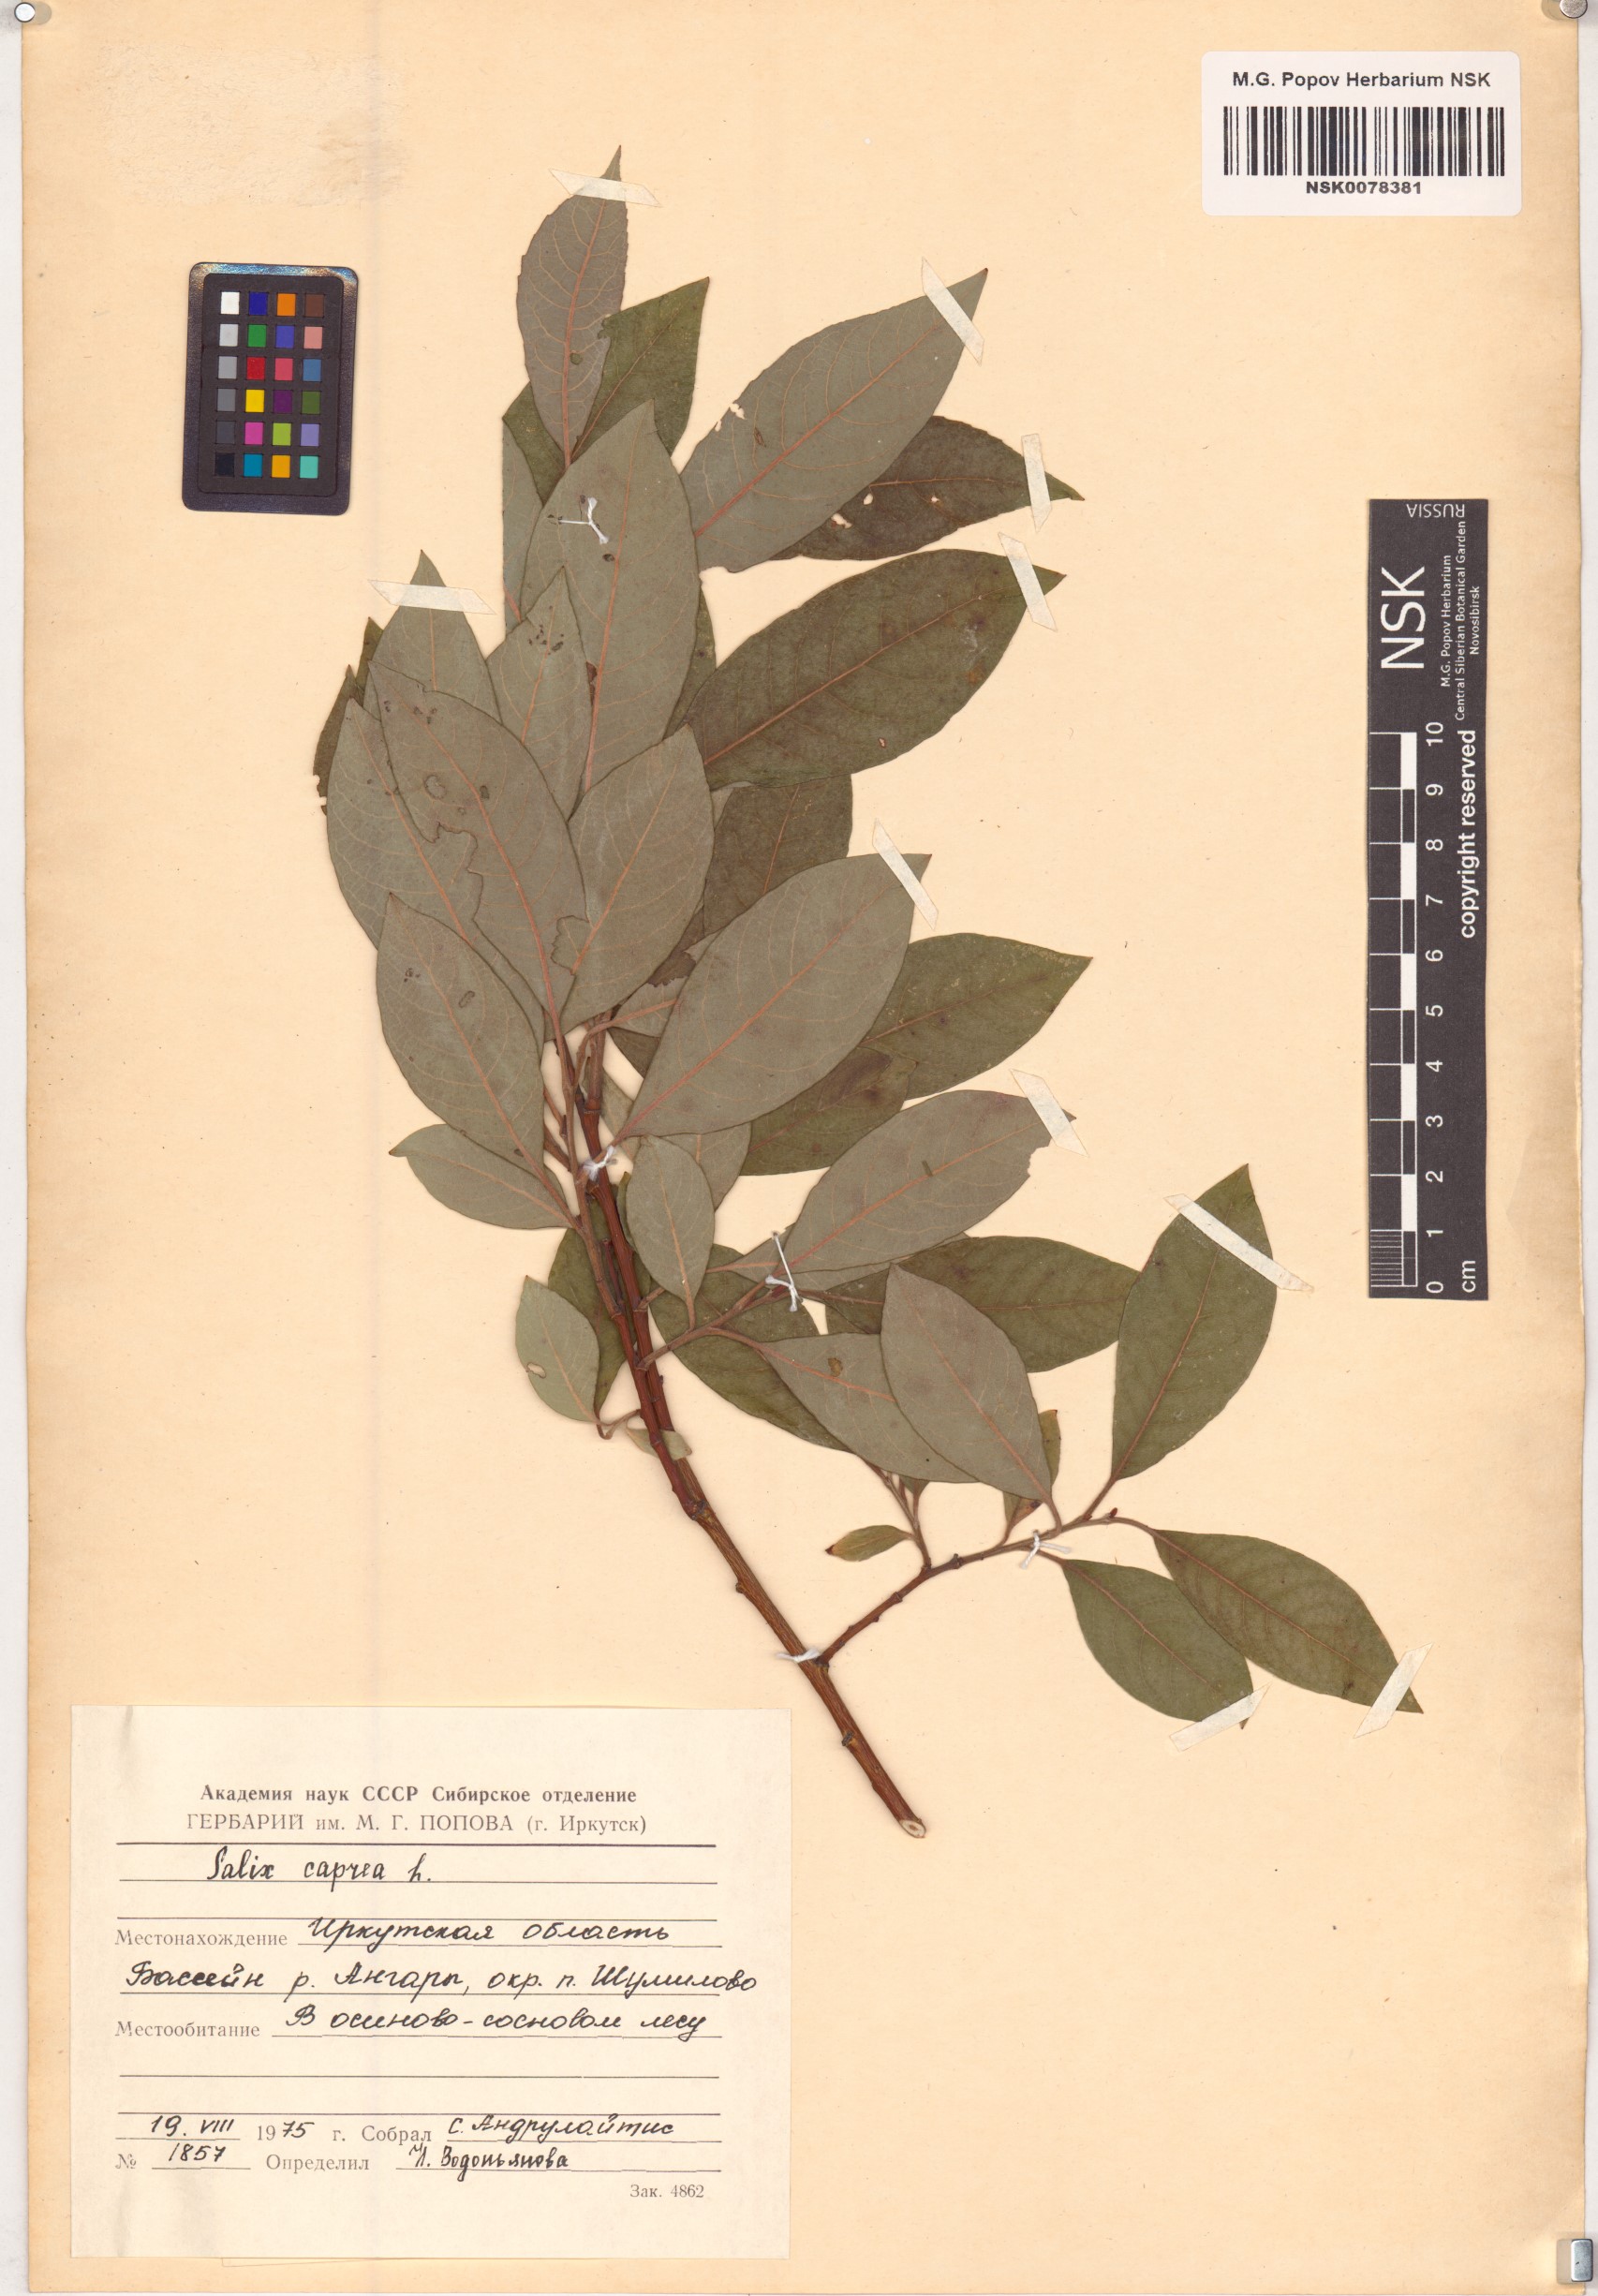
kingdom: Plantae
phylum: Tracheophyta
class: Magnoliopsida
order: Malpighiales
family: Salicaceae
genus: Salix
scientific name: Salix caprea
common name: Goat willow
